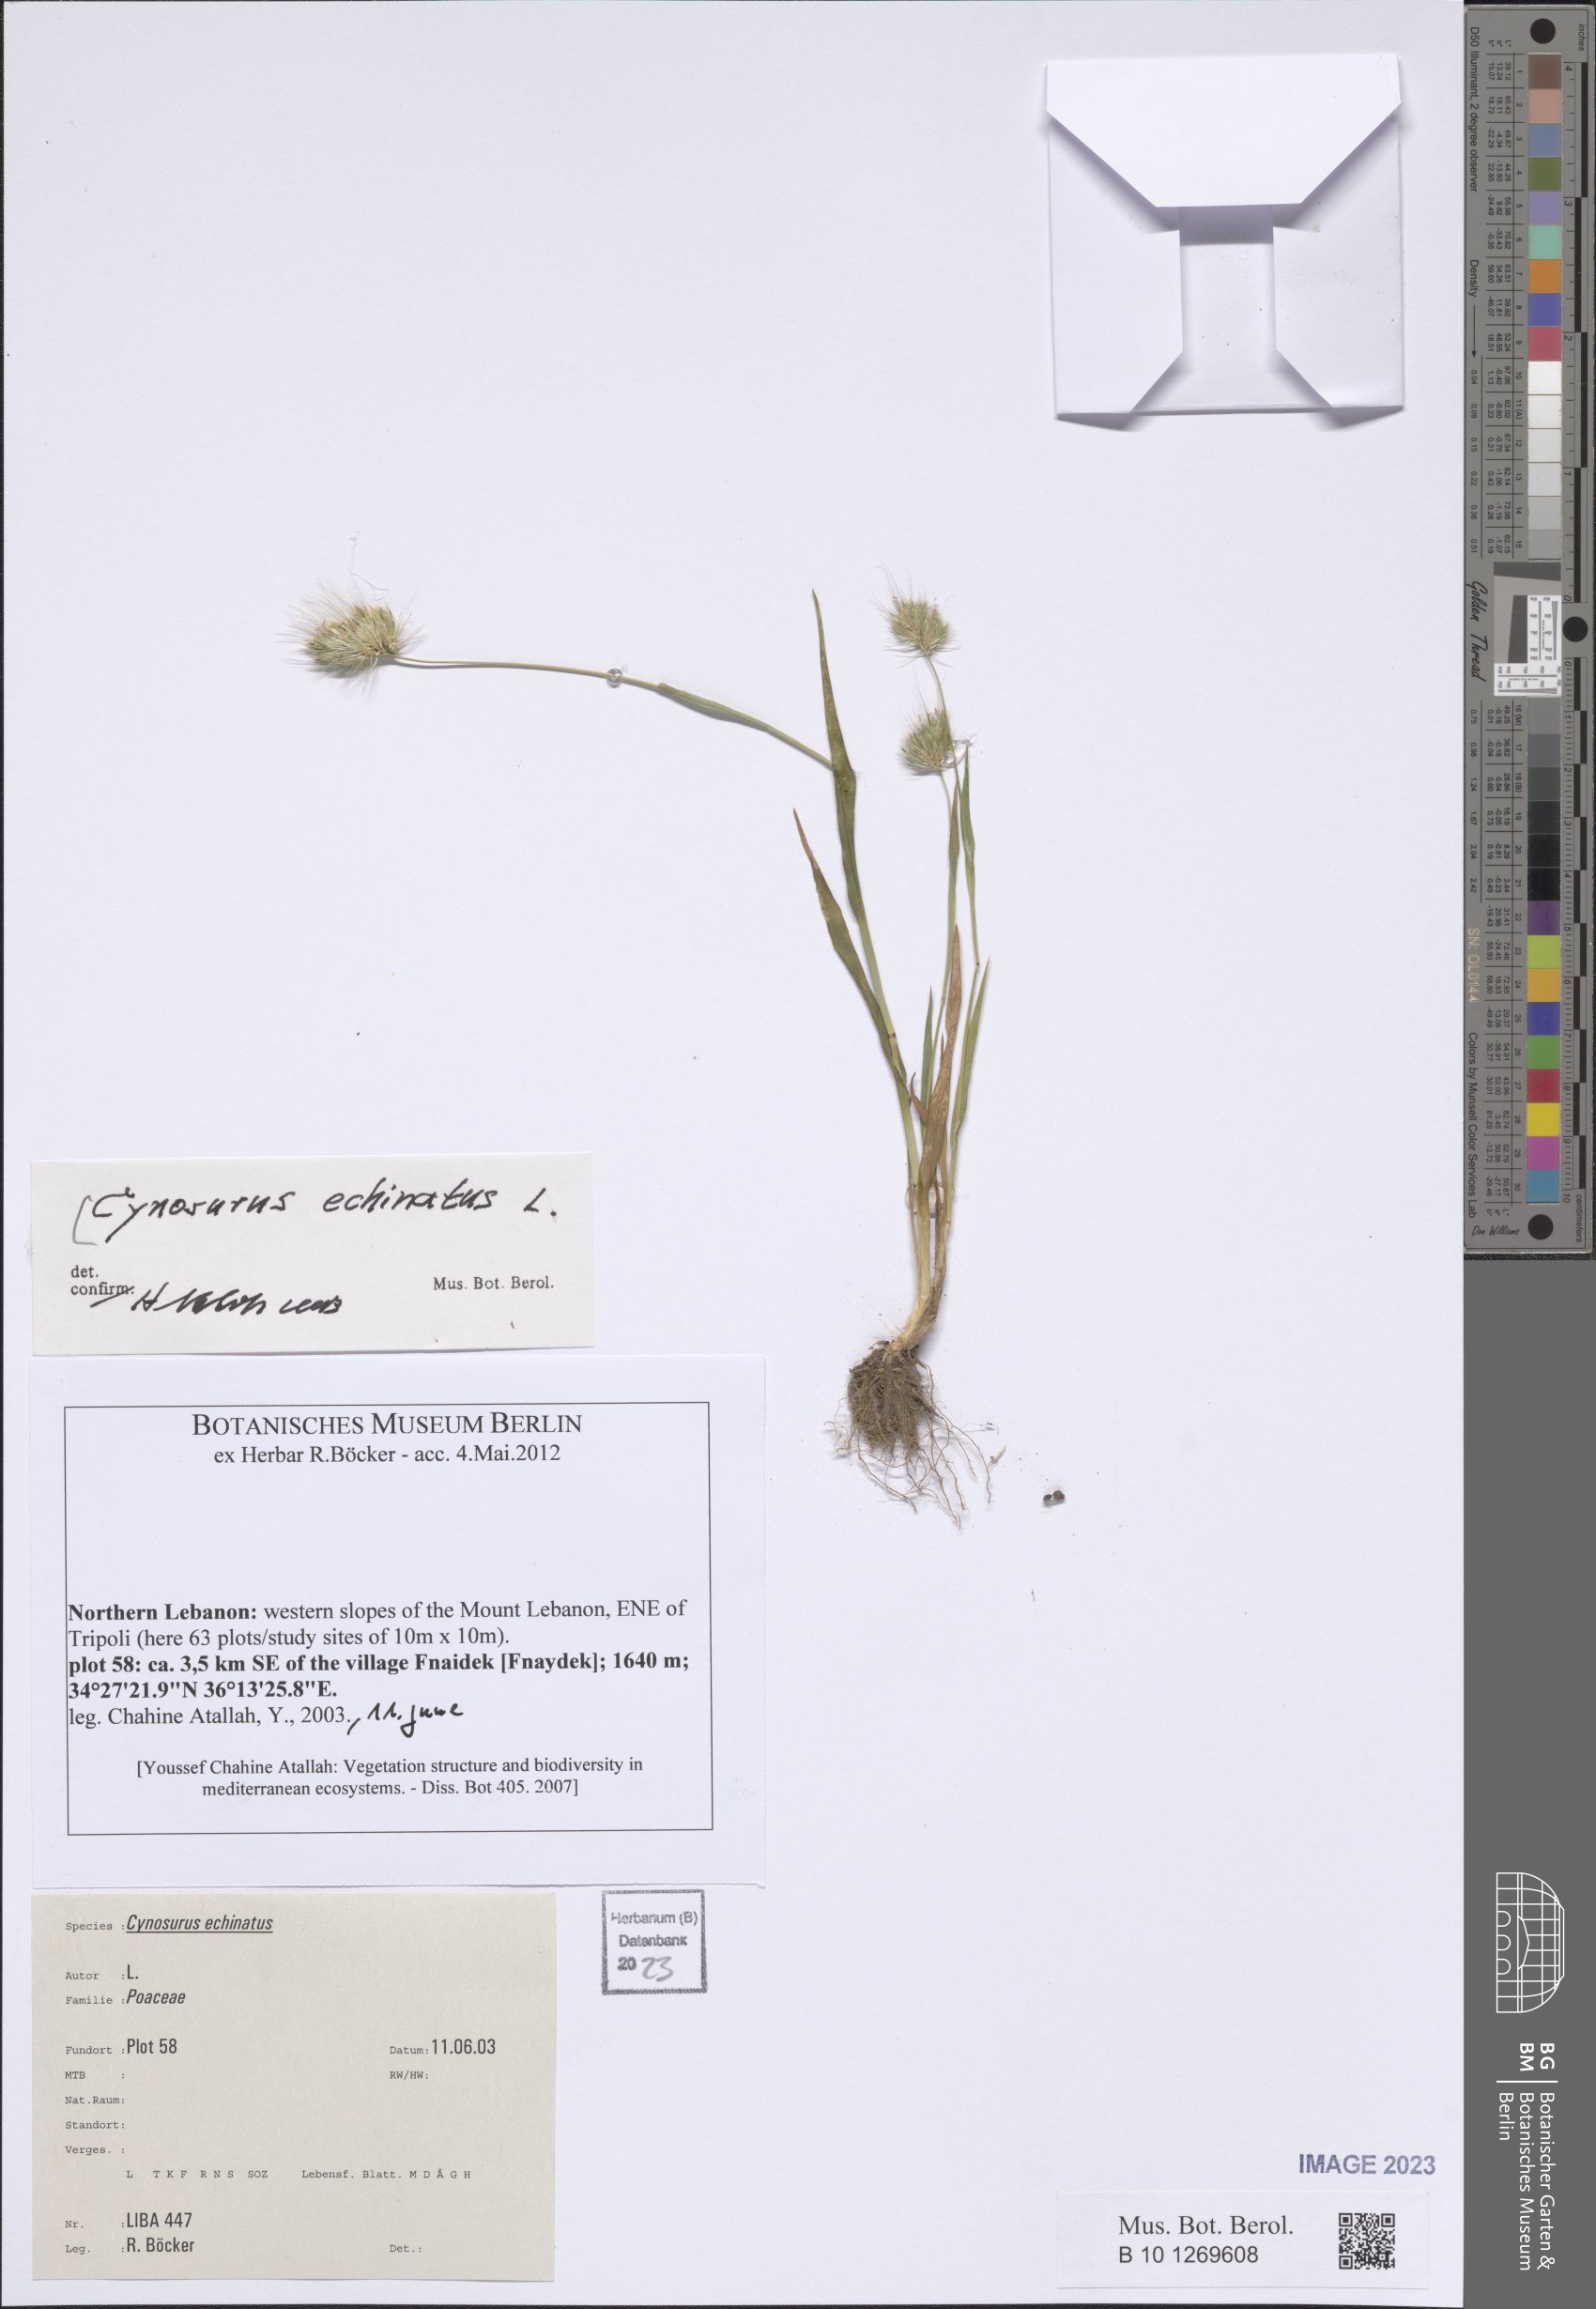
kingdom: Plantae
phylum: Tracheophyta
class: Liliopsida
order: Poales
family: Poaceae
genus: Cynosurus
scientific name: Cynosurus echinatus
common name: Rough dog's-tail
